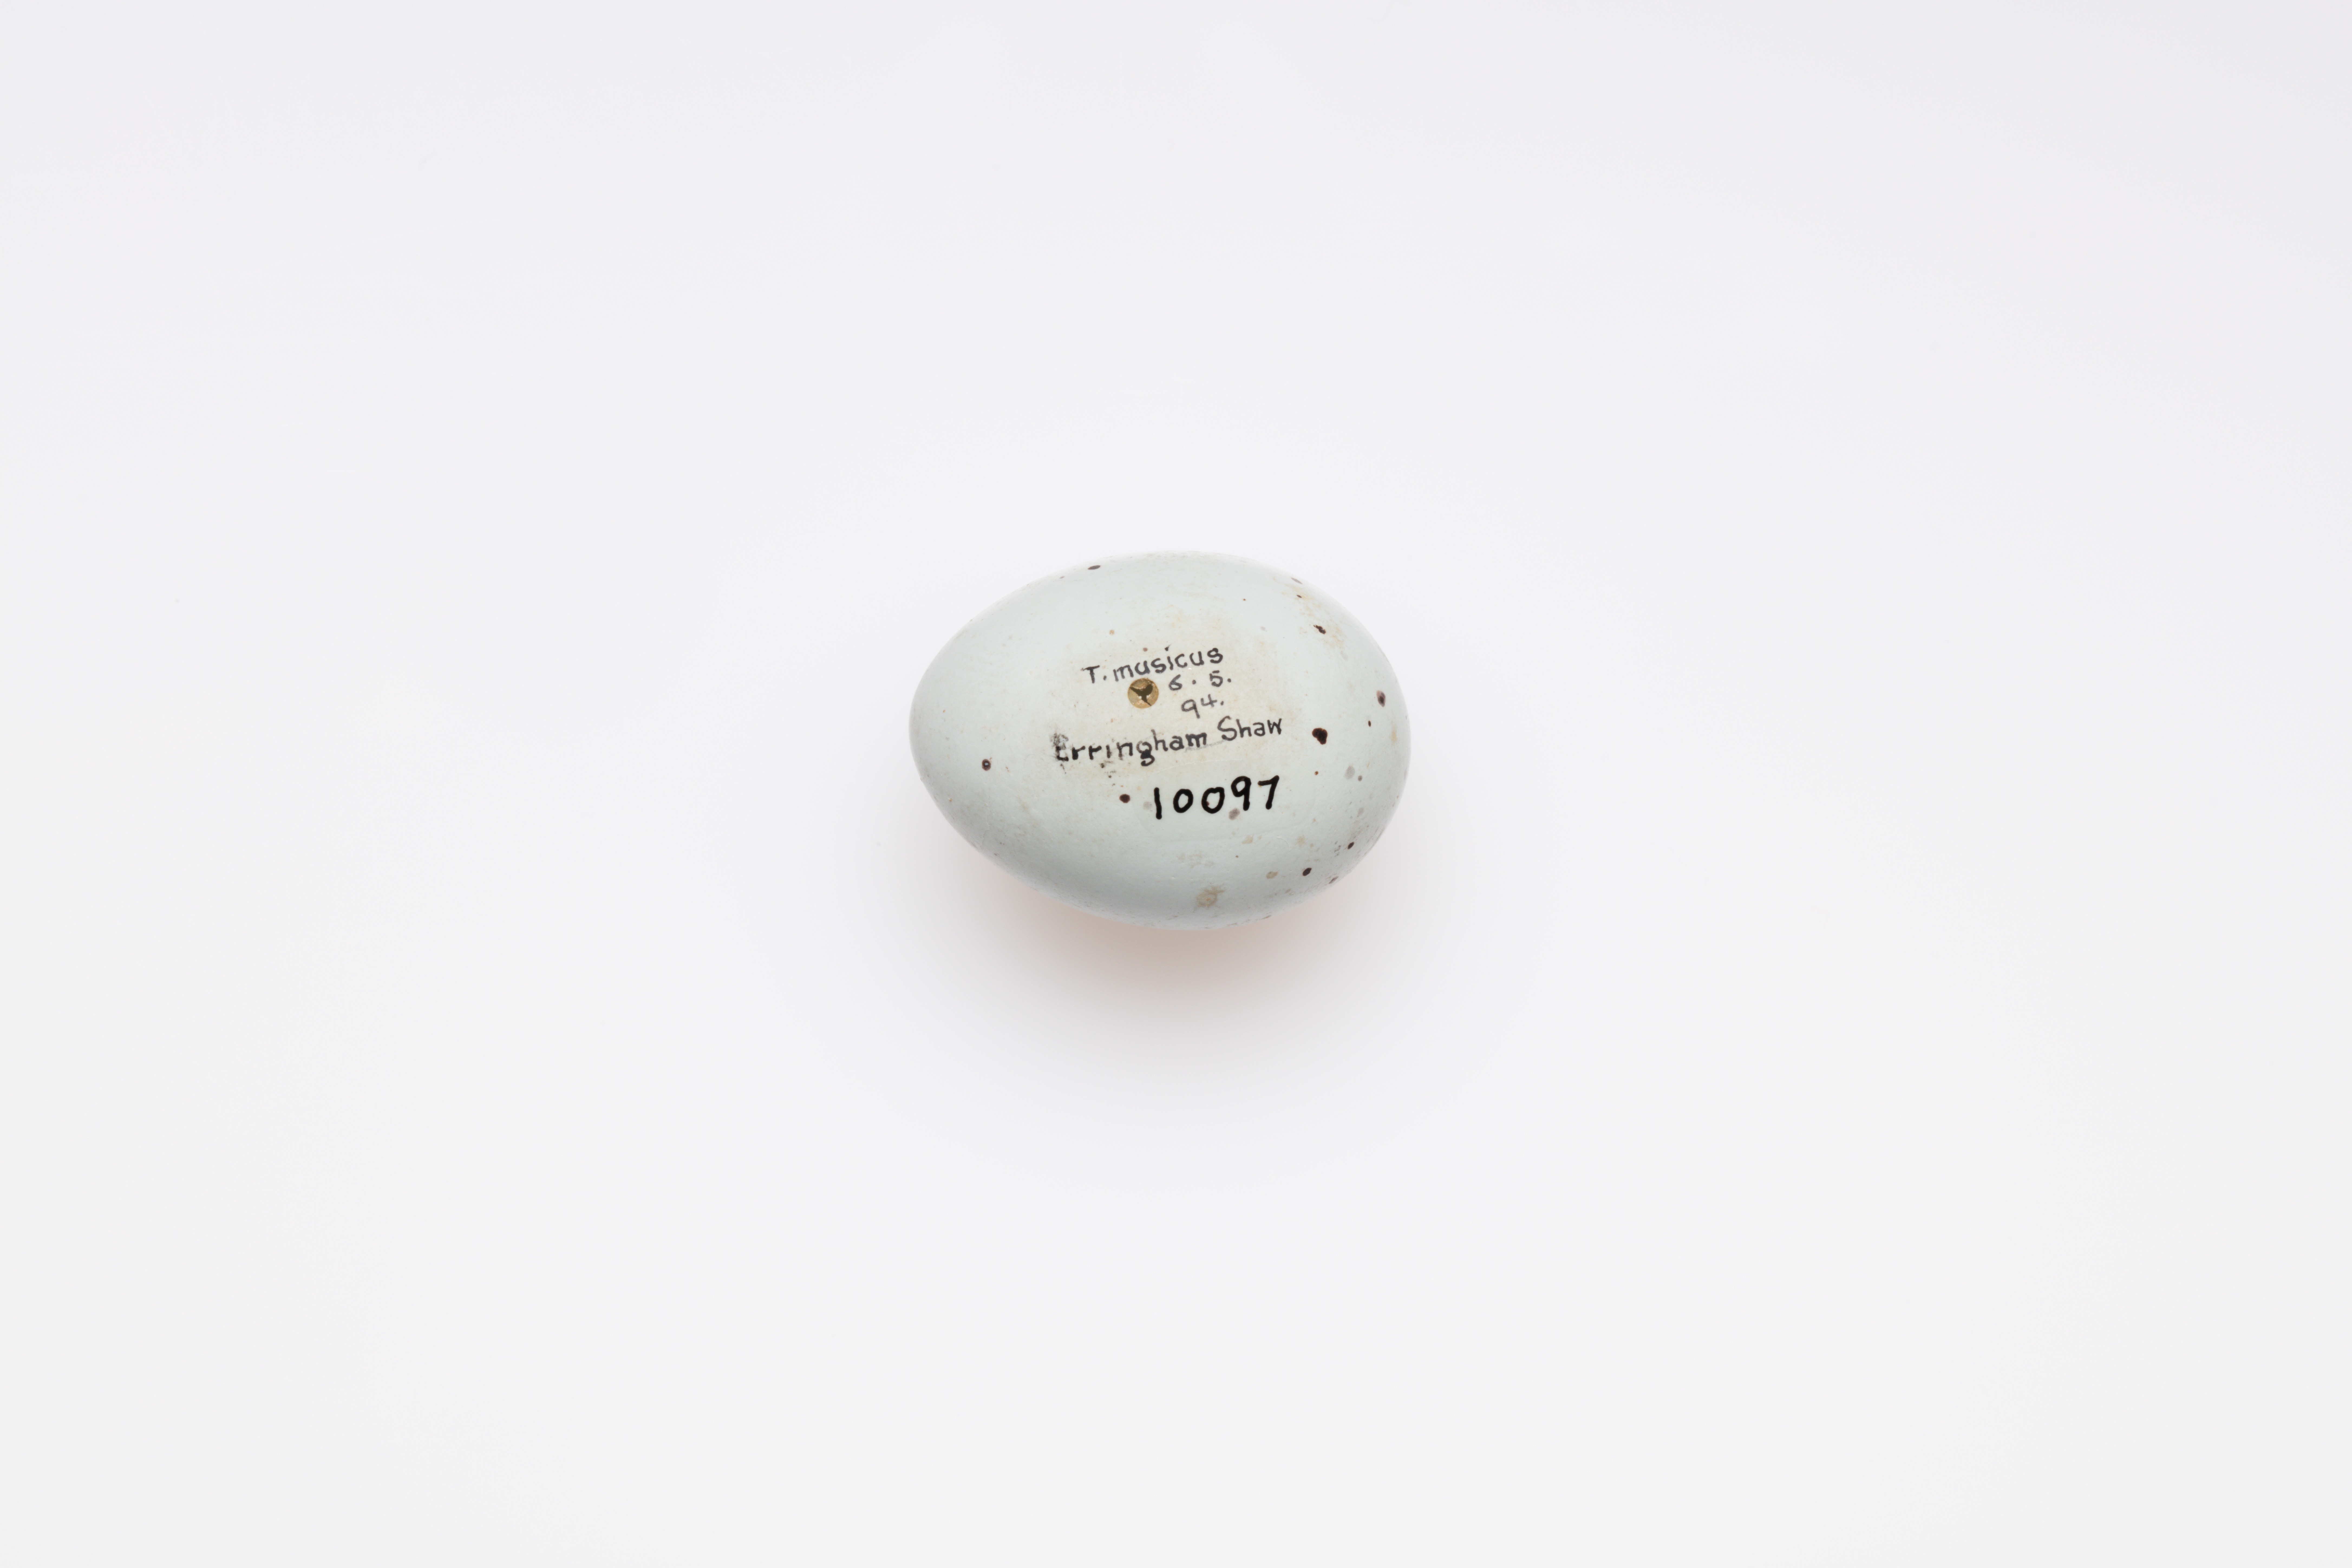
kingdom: Animalia
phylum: Chordata
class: Aves
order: Passeriformes
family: Turdidae
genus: Turdus
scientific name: Turdus philomelos
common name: Song thrush
